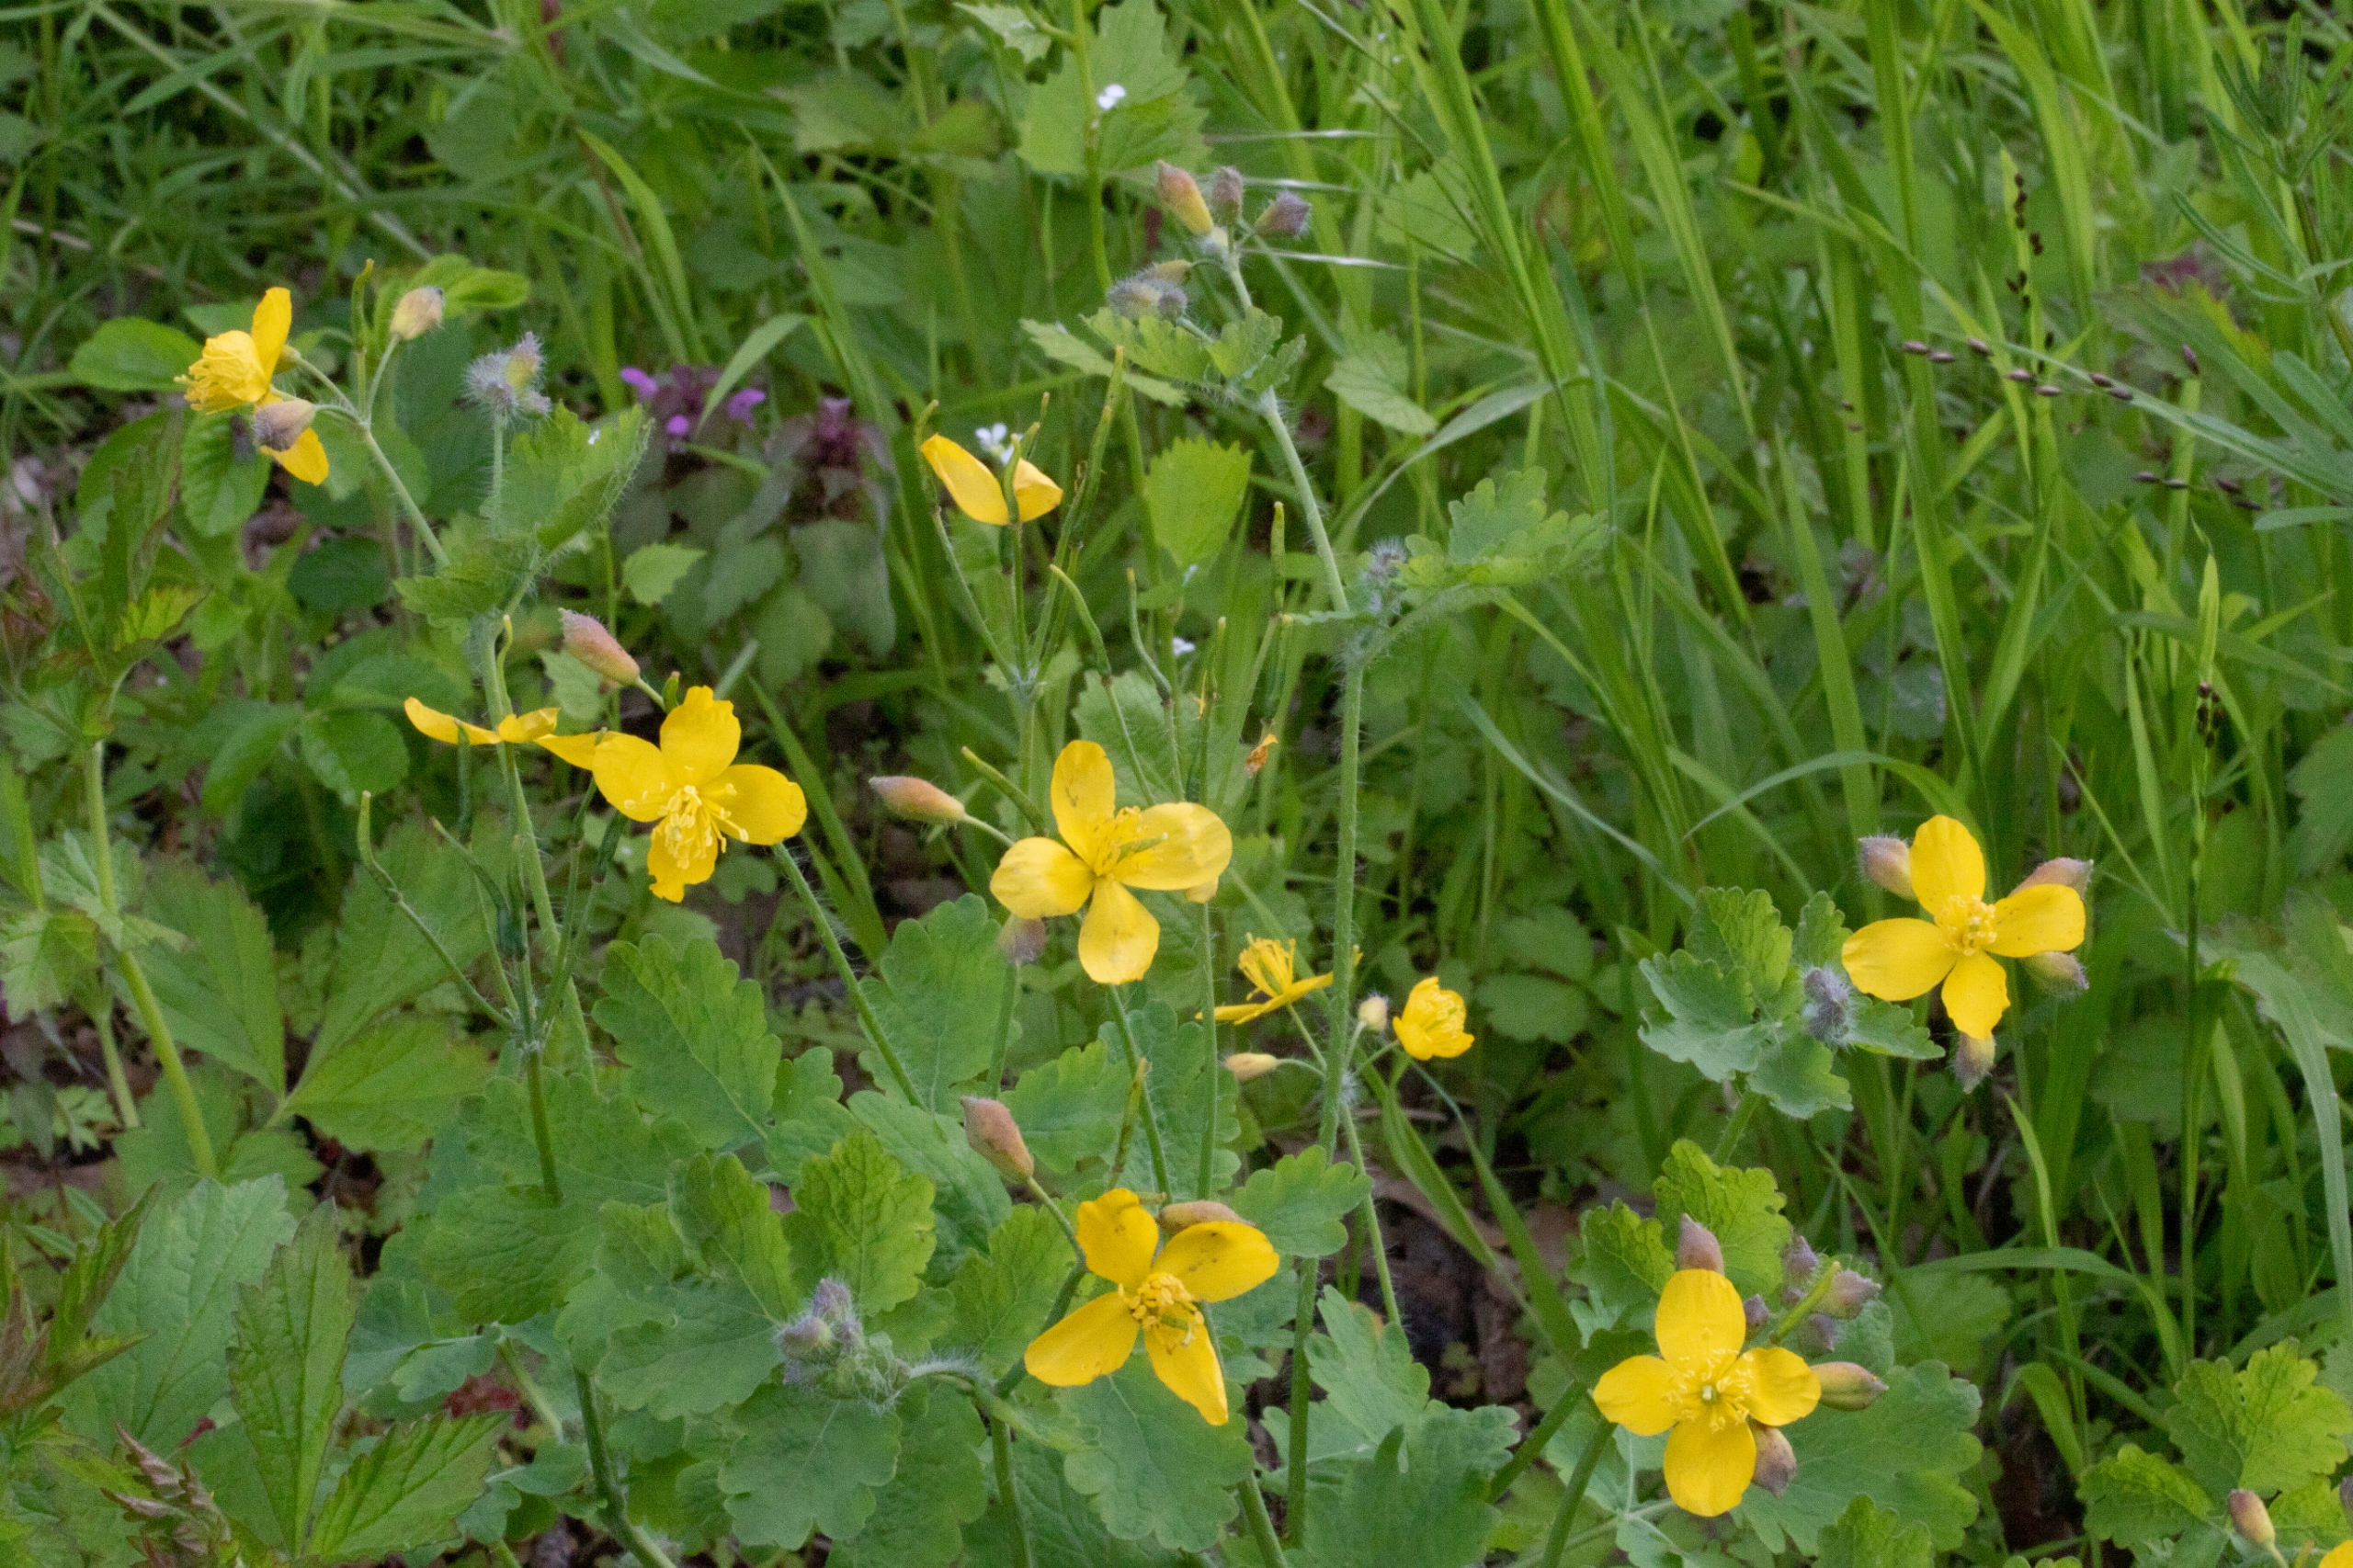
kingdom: Plantae
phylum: Tracheophyta
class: Magnoliopsida
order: Ranunculales
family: Papaveraceae
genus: Chelidonium
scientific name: Chelidonium majus
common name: Svaleurt
